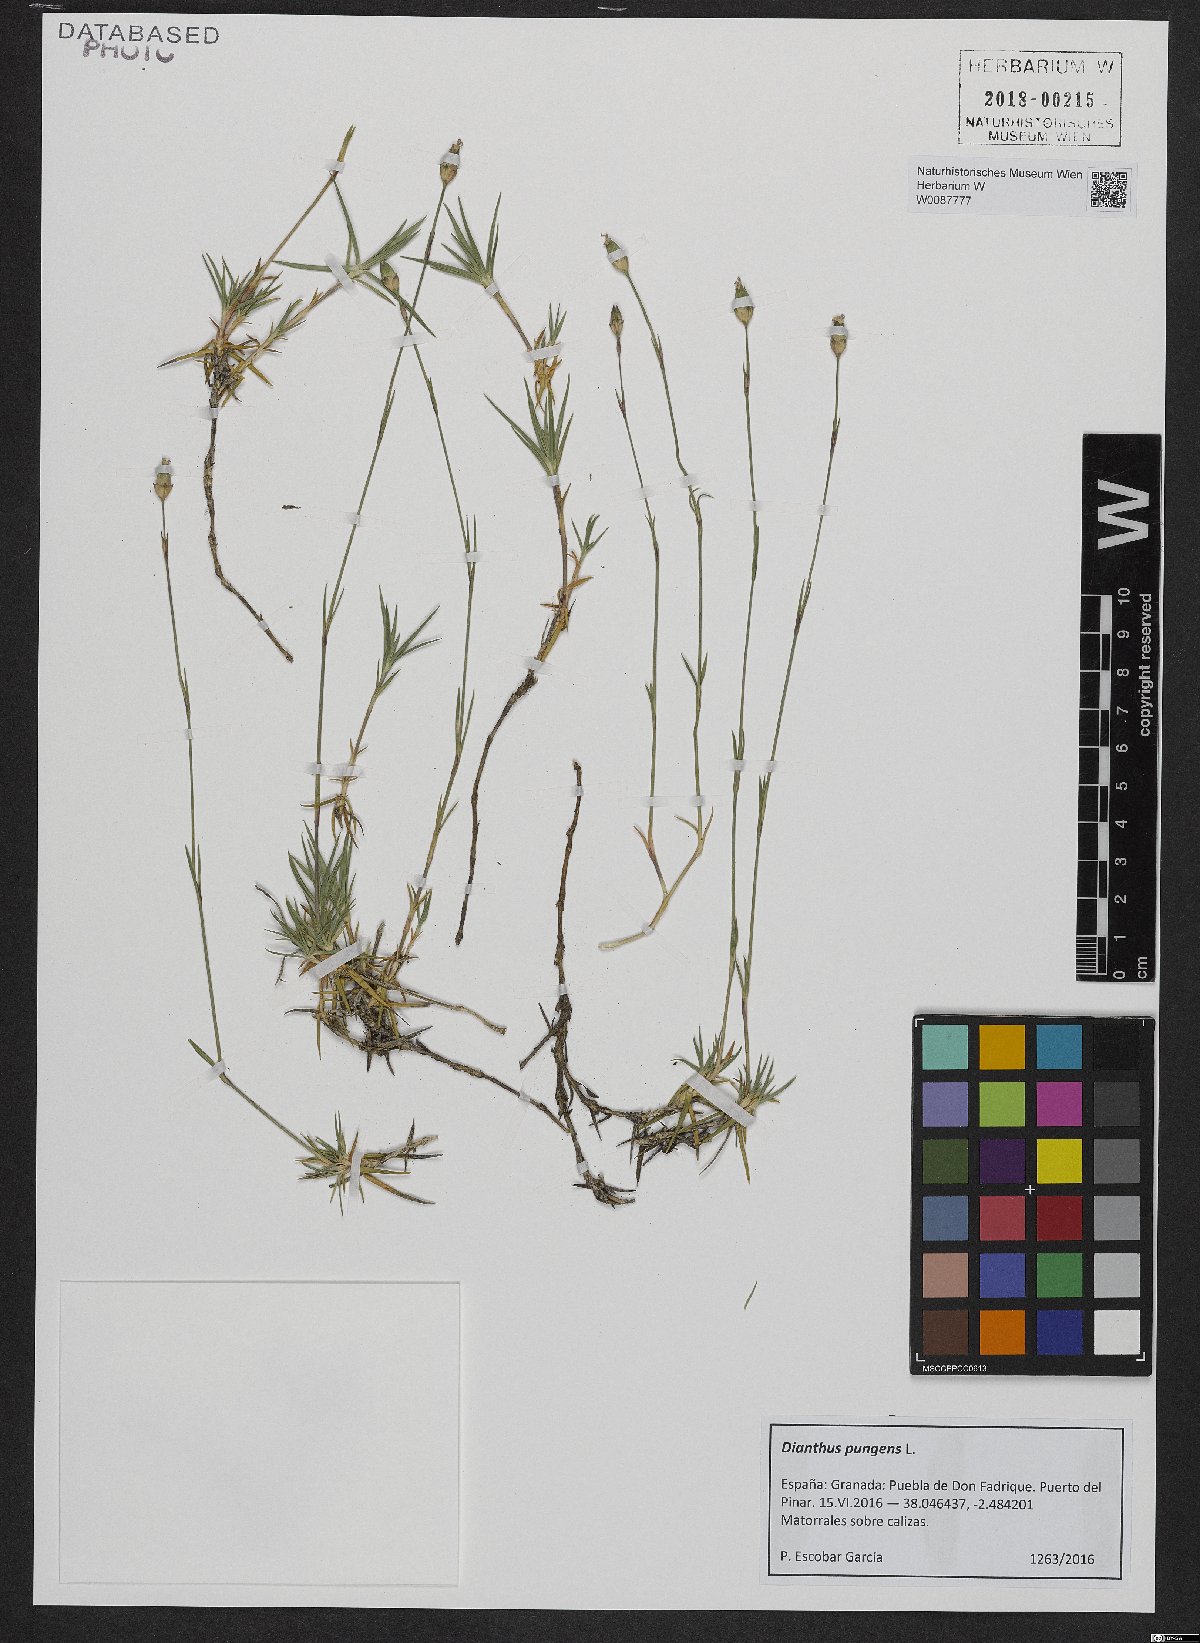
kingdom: Plantae
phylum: Tracheophyta
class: Magnoliopsida
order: Caryophyllales
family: Caryophyllaceae
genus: Dianthus
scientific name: Dianthus pungens
